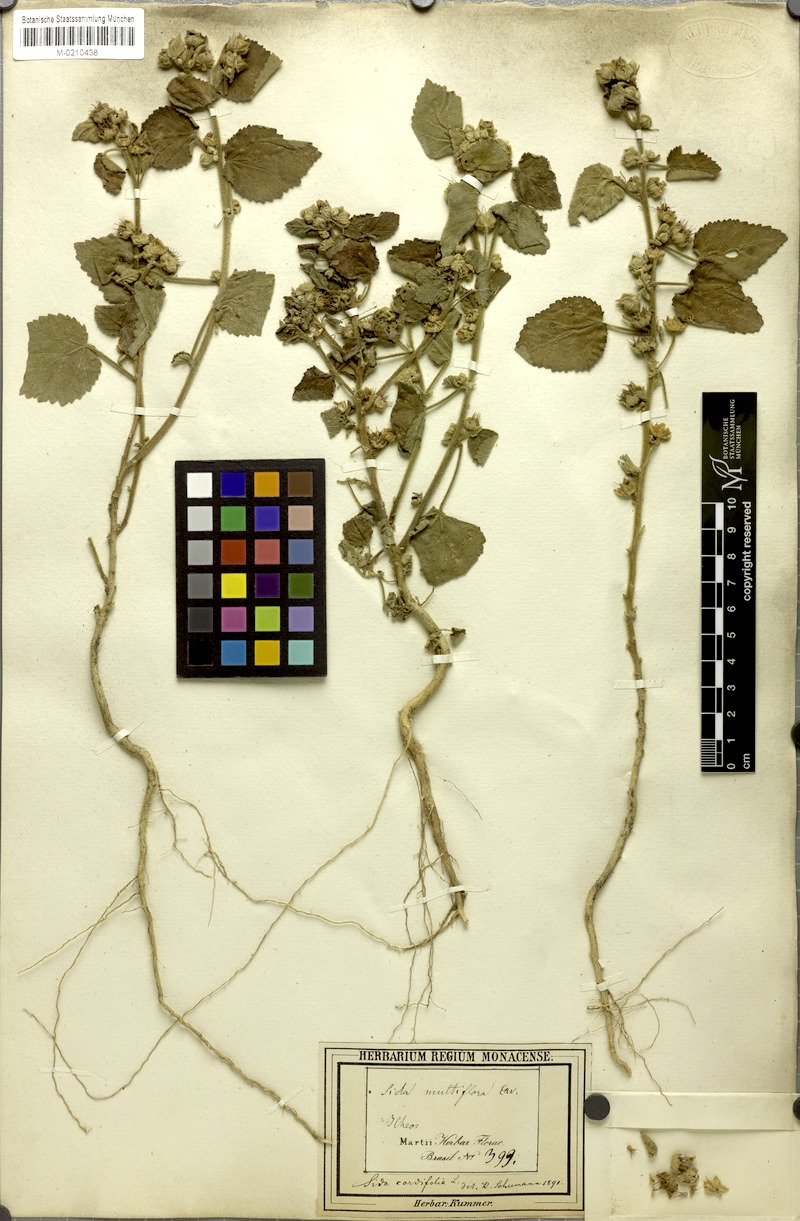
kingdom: Plantae
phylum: Tracheophyta
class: Magnoliopsida
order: Malvales
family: Malvaceae
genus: Sida
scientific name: Sida cordifolia
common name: Ilima
